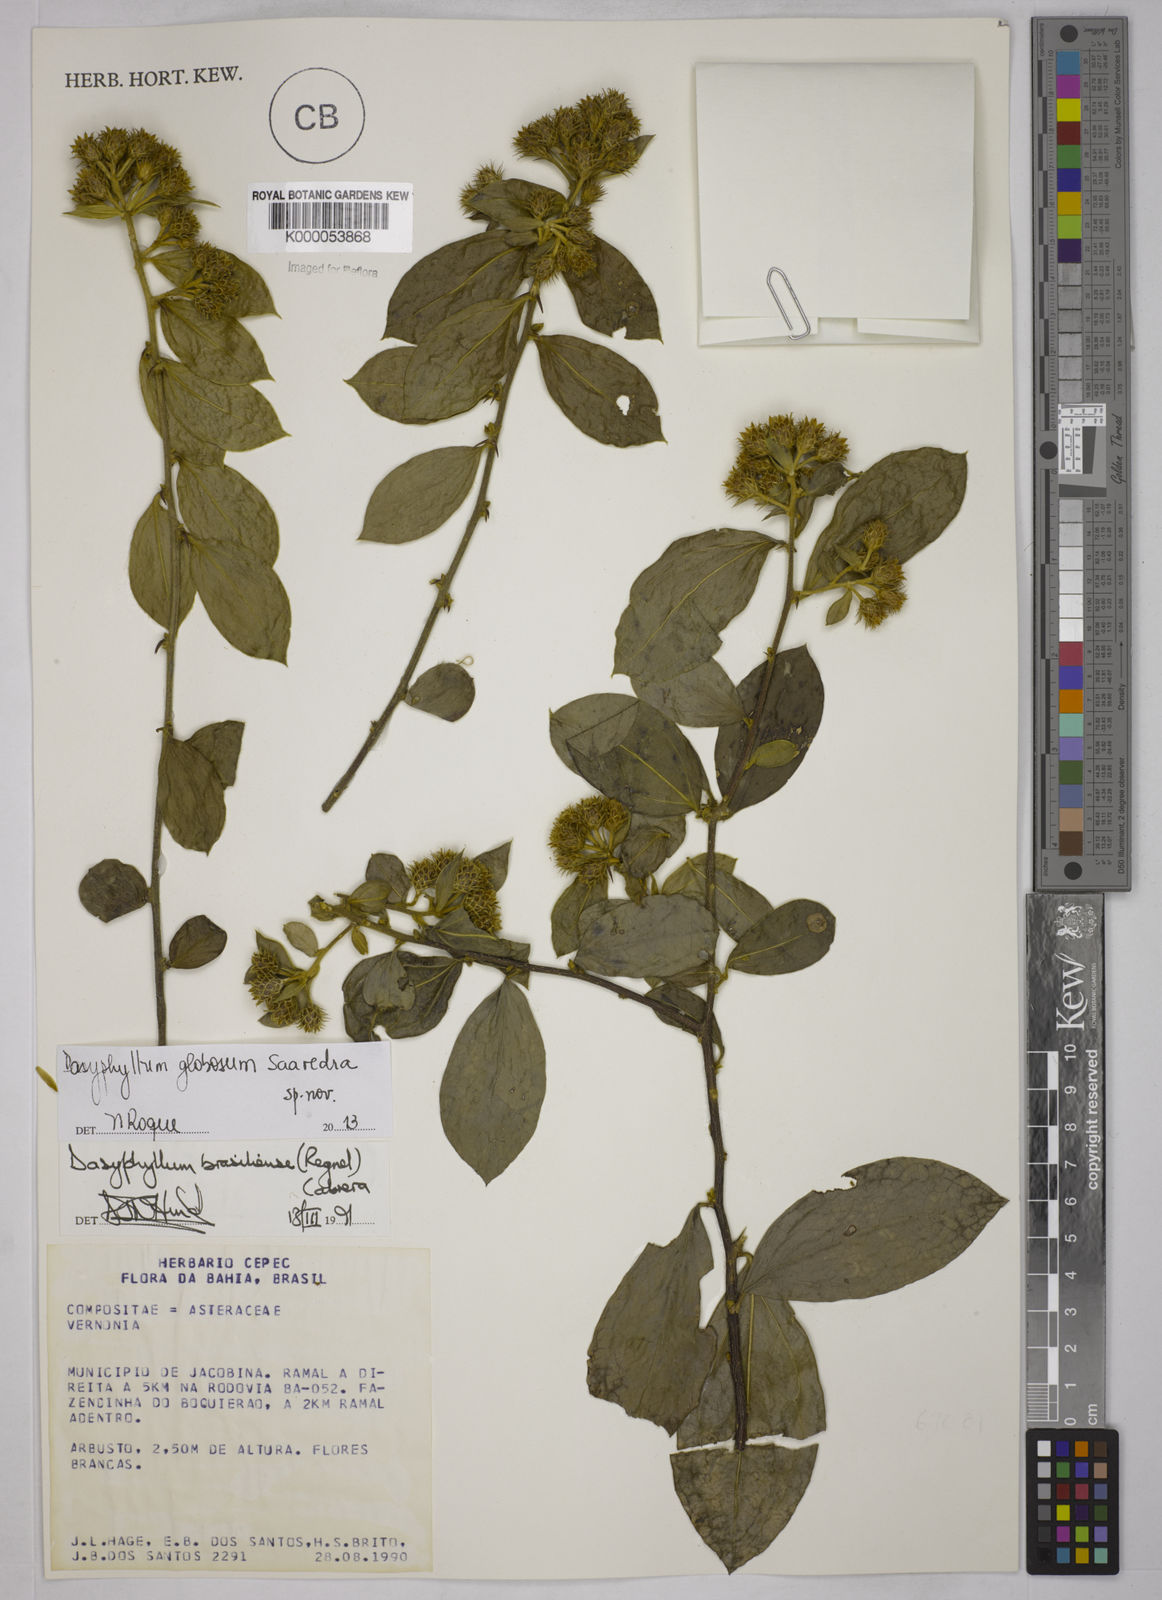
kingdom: Plantae
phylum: Tracheophyta
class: Magnoliopsida
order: Asterales
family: Asteraceae
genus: Dasyphyllum
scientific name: Dasyphyllum brasiliense
